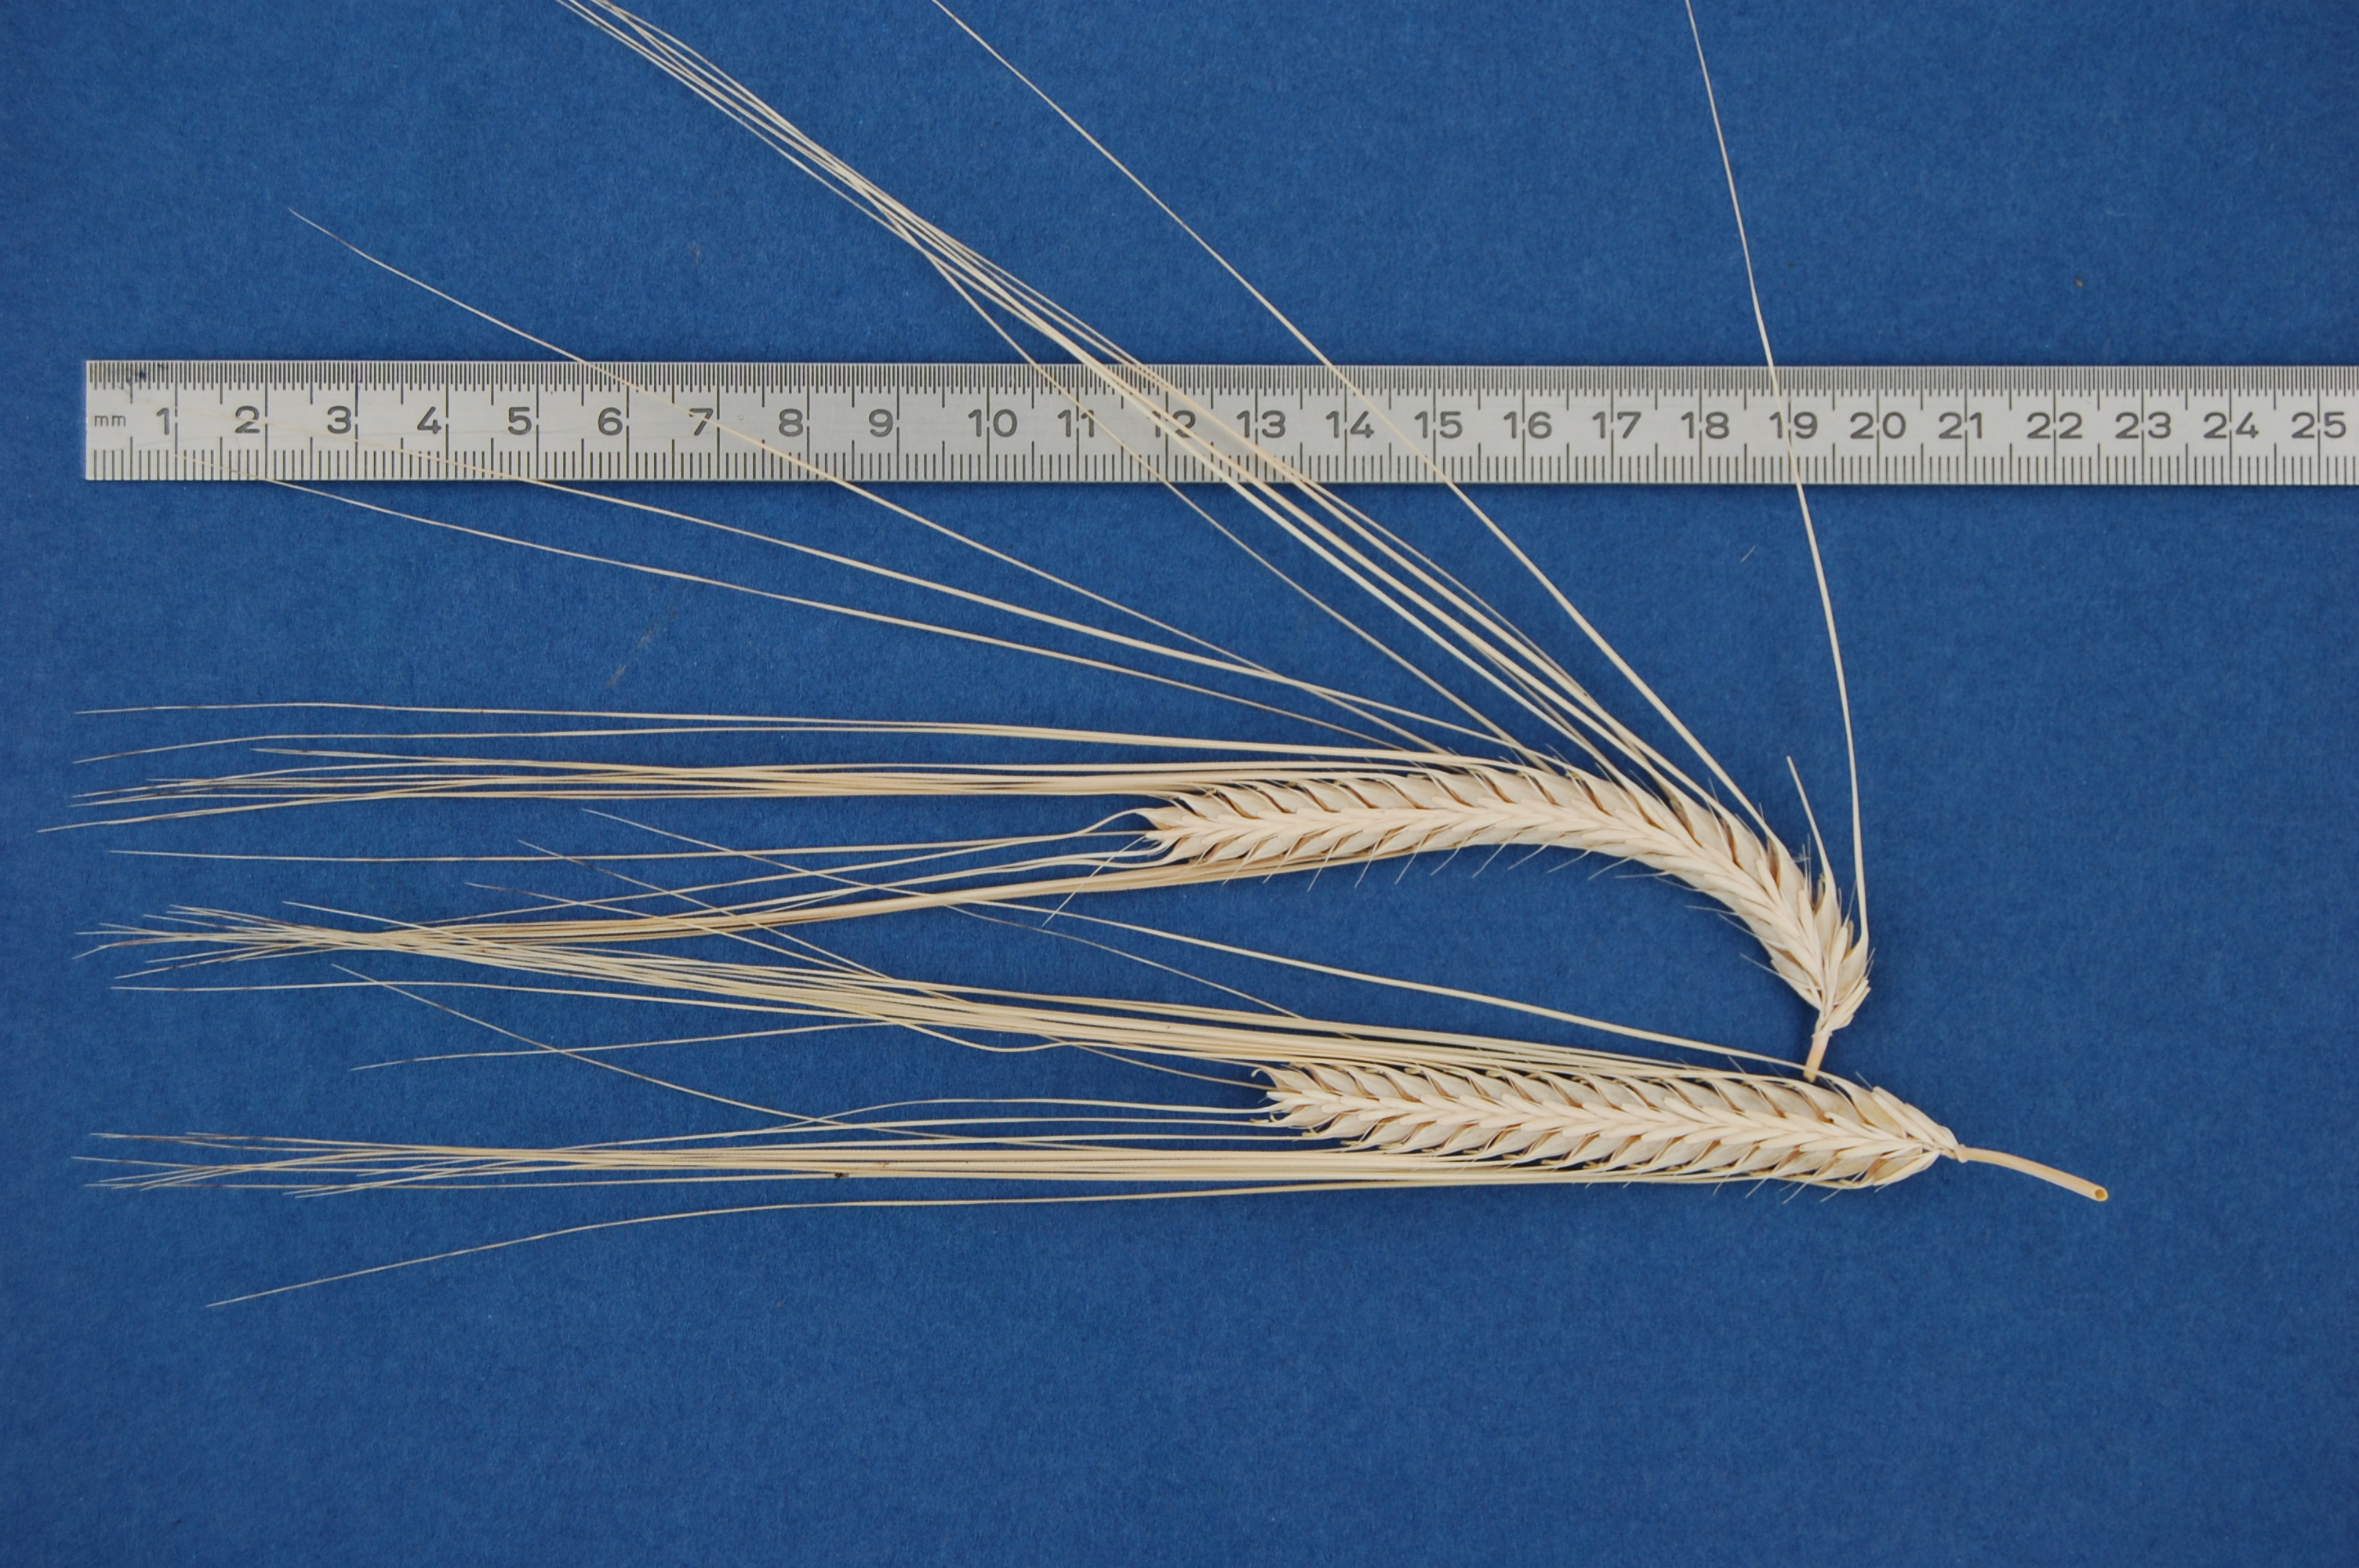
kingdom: Plantae
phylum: Tracheophyta
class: Liliopsida
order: Poales
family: Poaceae
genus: Hordeum
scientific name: Hordeum vulgare
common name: Common barley
